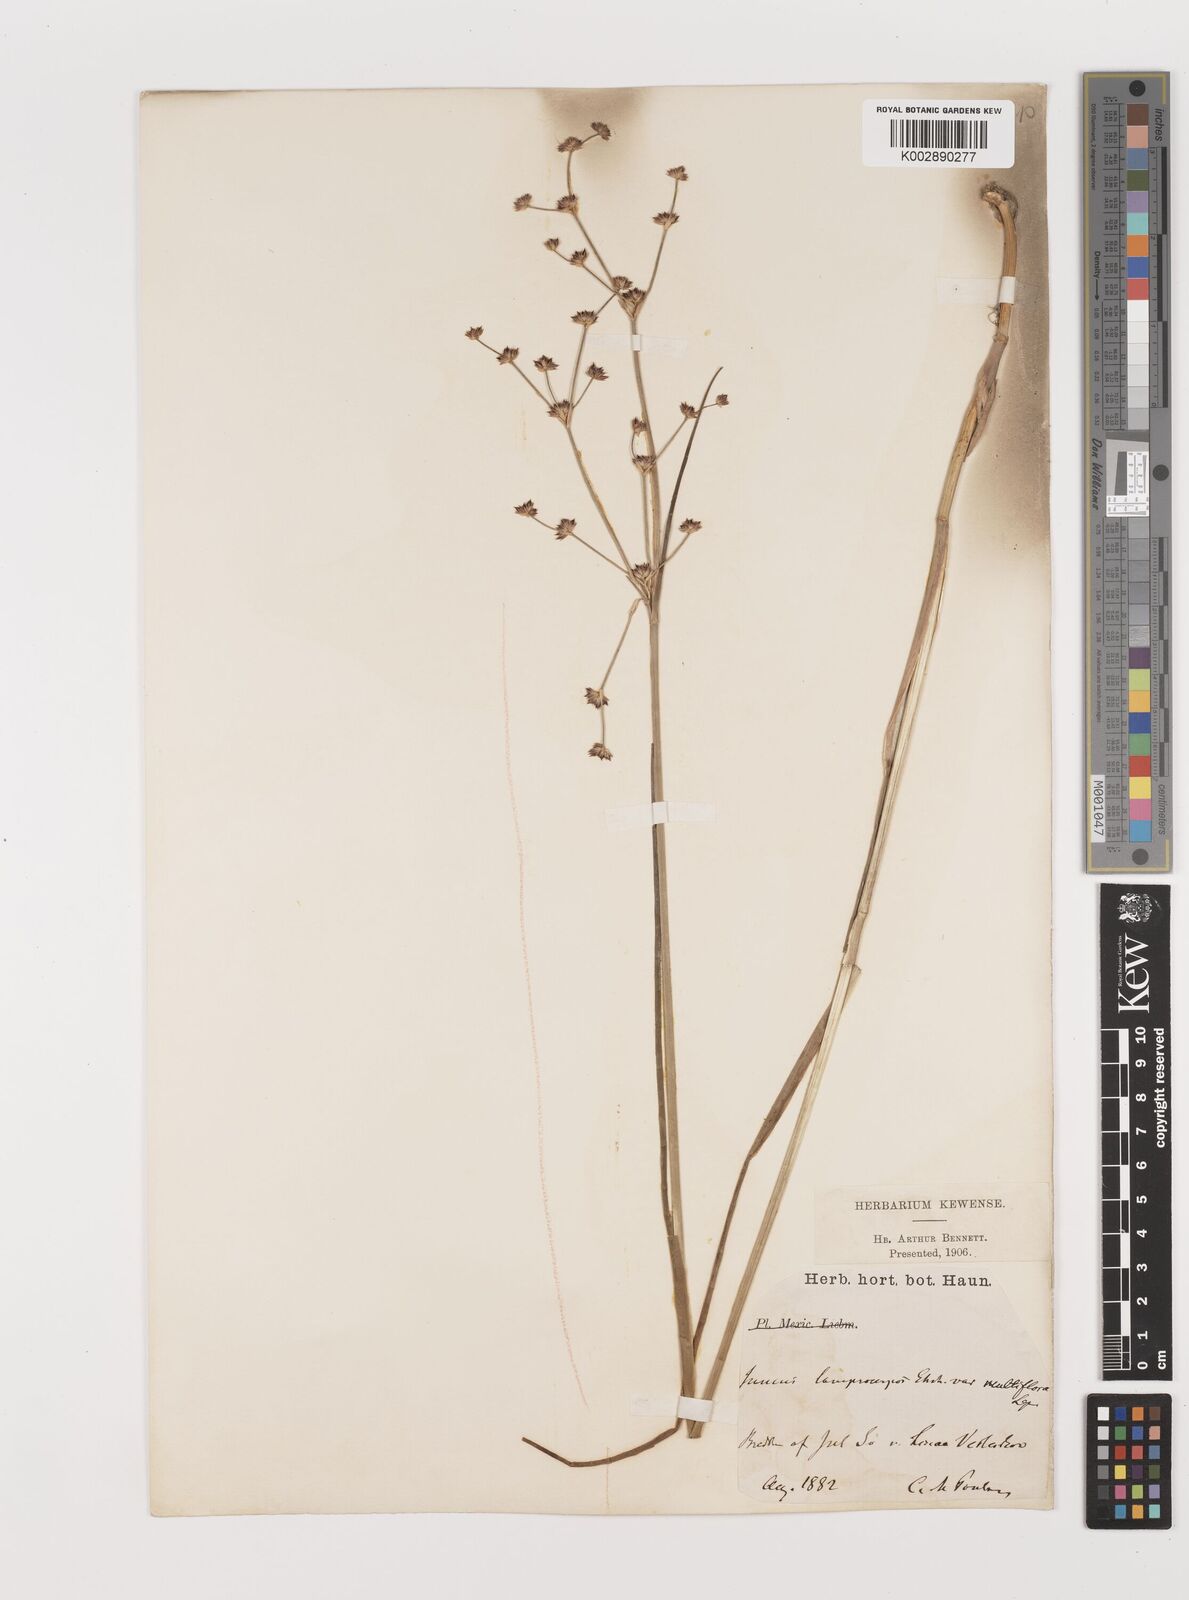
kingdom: Plantae
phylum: Tracheophyta
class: Liliopsida
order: Poales
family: Juncaceae
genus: Juncus
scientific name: Juncus articulatus
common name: Jointed rush
